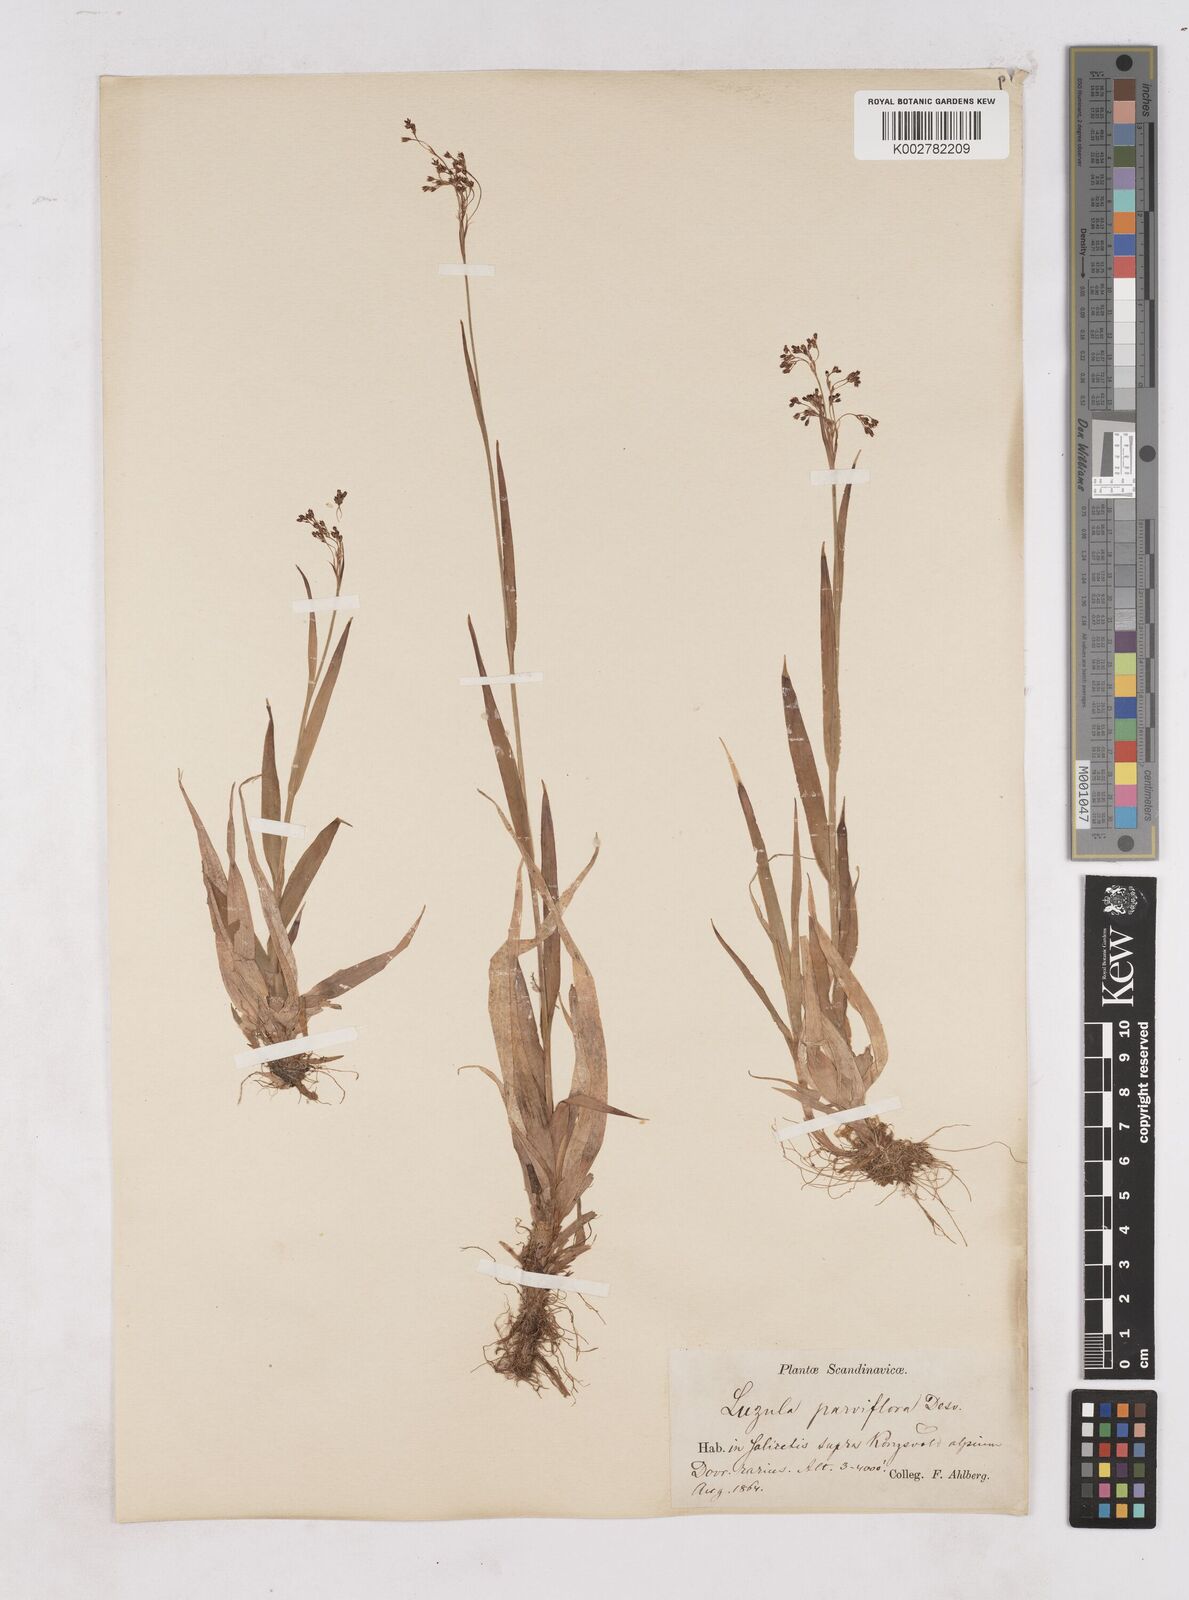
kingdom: Plantae
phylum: Tracheophyta
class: Liliopsida
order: Poales
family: Juncaceae
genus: Luzula
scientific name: Luzula parviflora
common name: Millet woodrush
